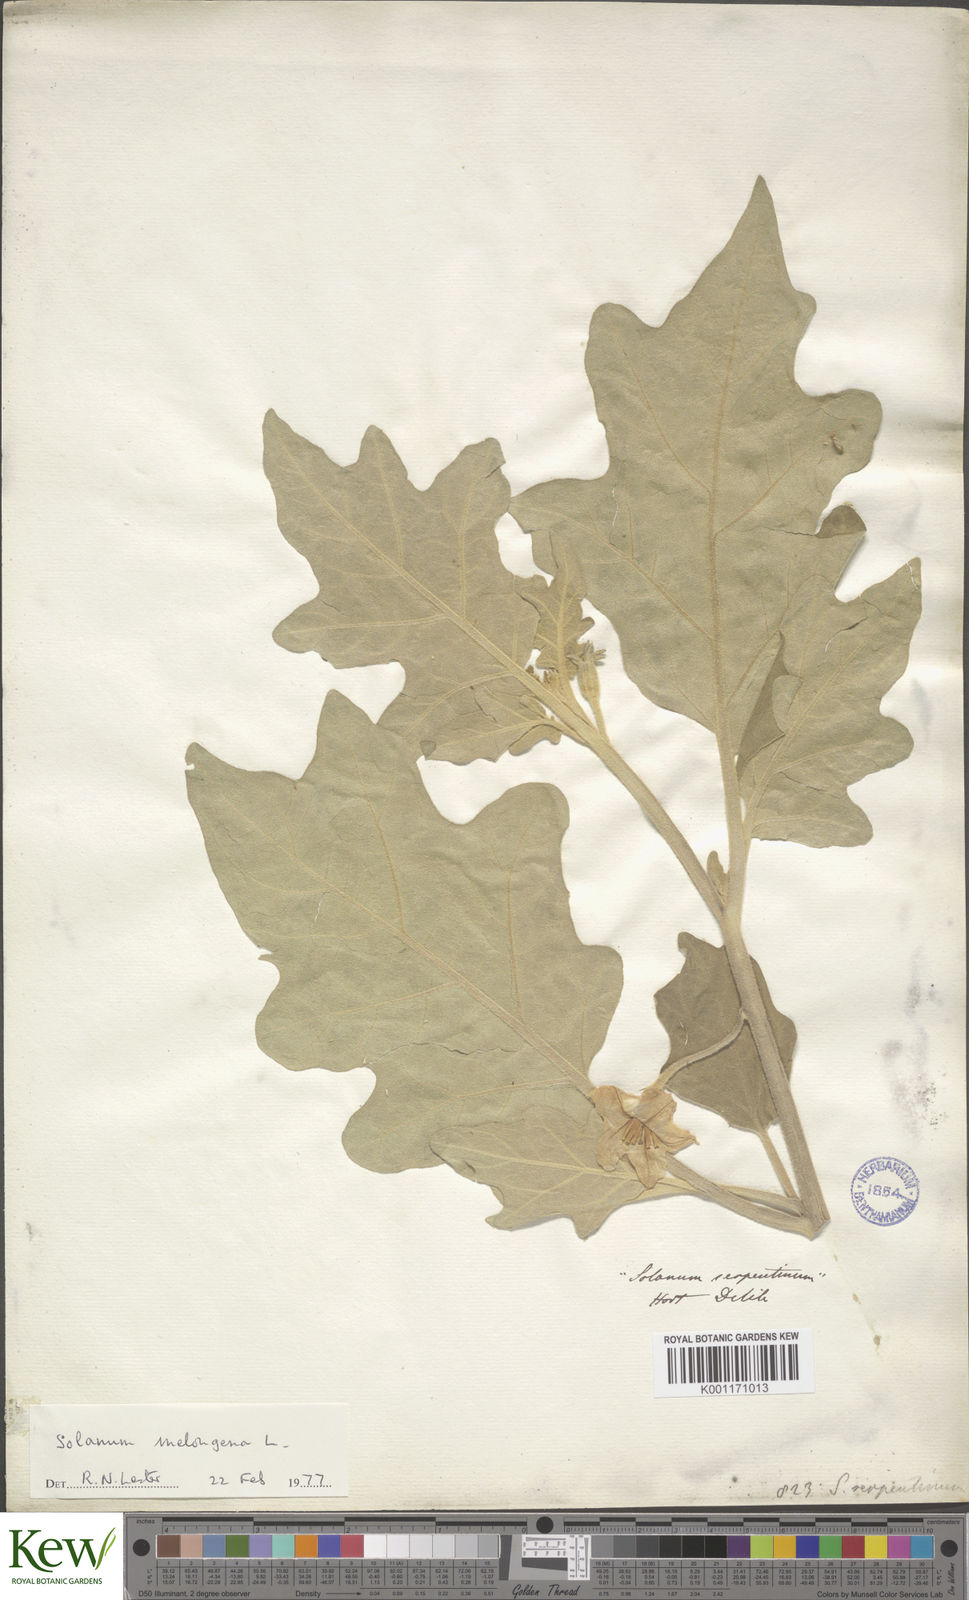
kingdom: Plantae
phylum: Tracheophyta
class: Magnoliopsida
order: Solanales
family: Solanaceae
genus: Solanum
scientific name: Solanum
